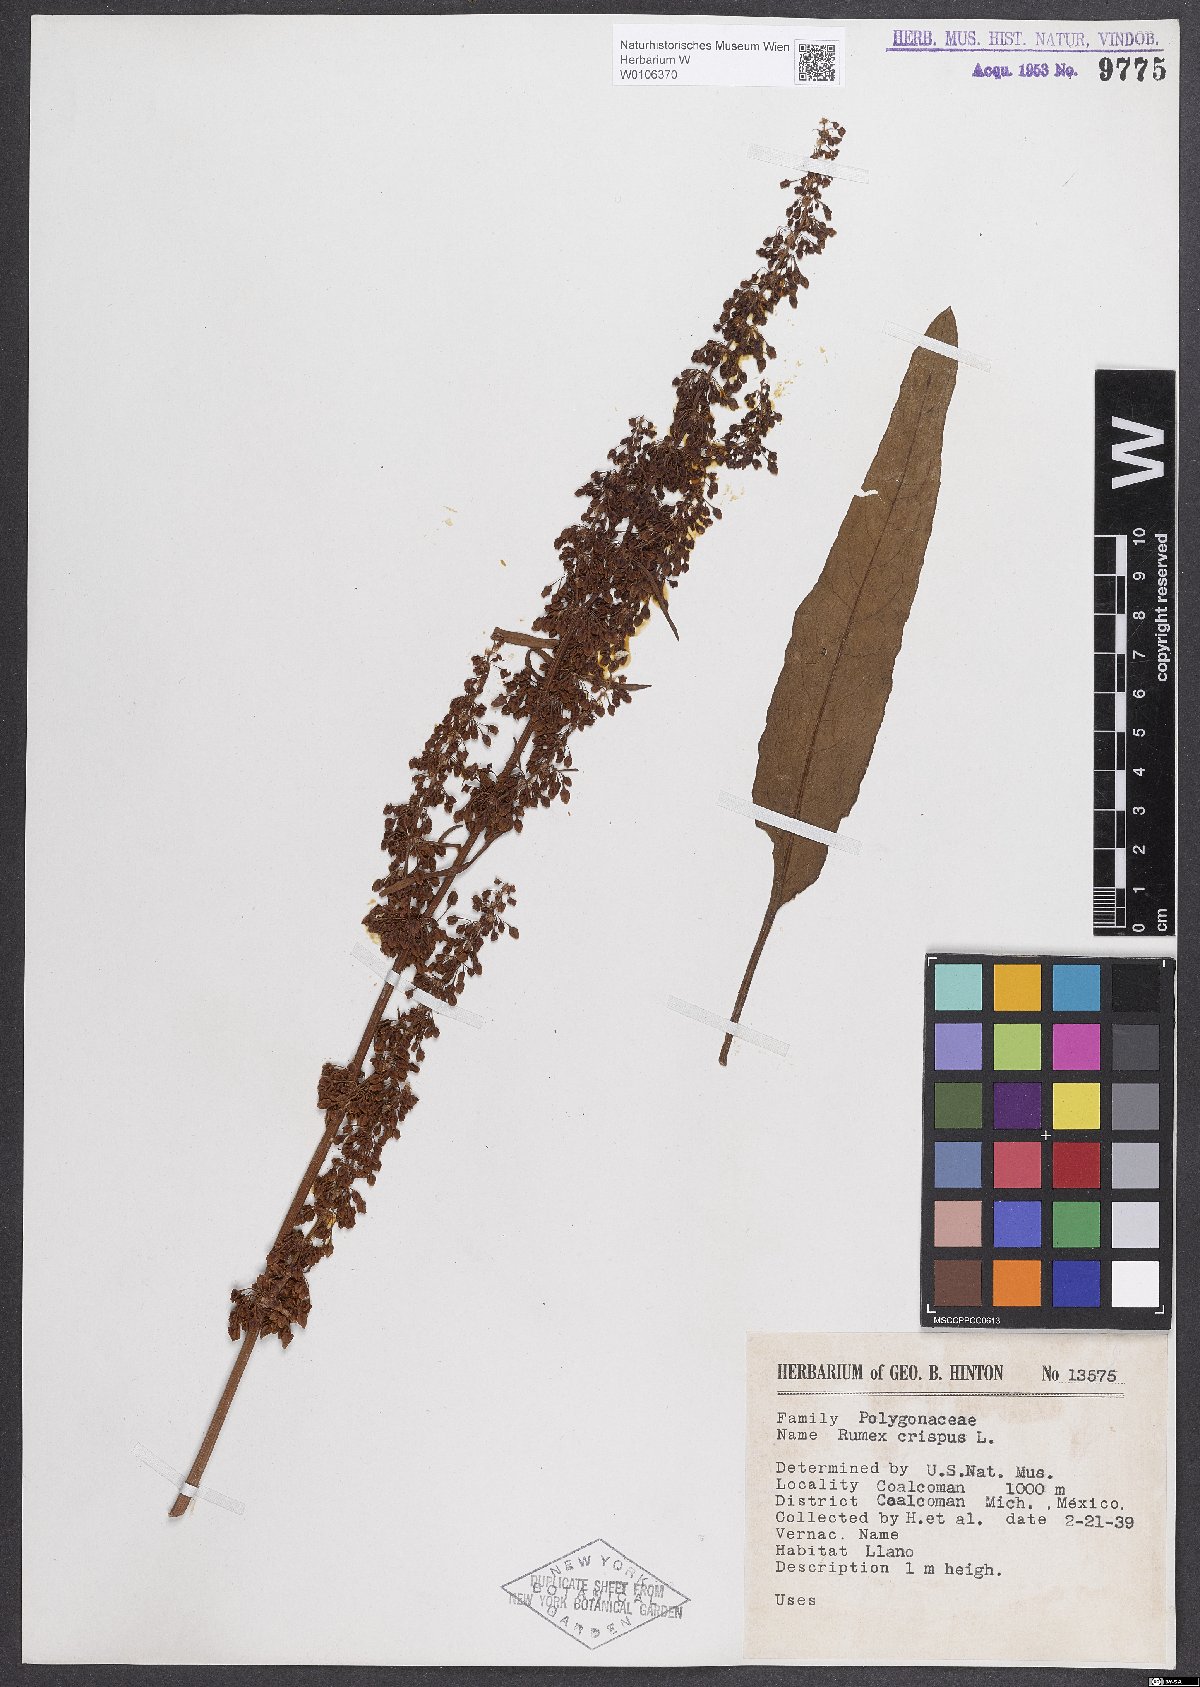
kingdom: Plantae
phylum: Tracheophyta
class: Magnoliopsida
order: Caryophyllales
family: Polygonaceae
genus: Rumex
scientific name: Rumex crispus
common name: Curled dock
